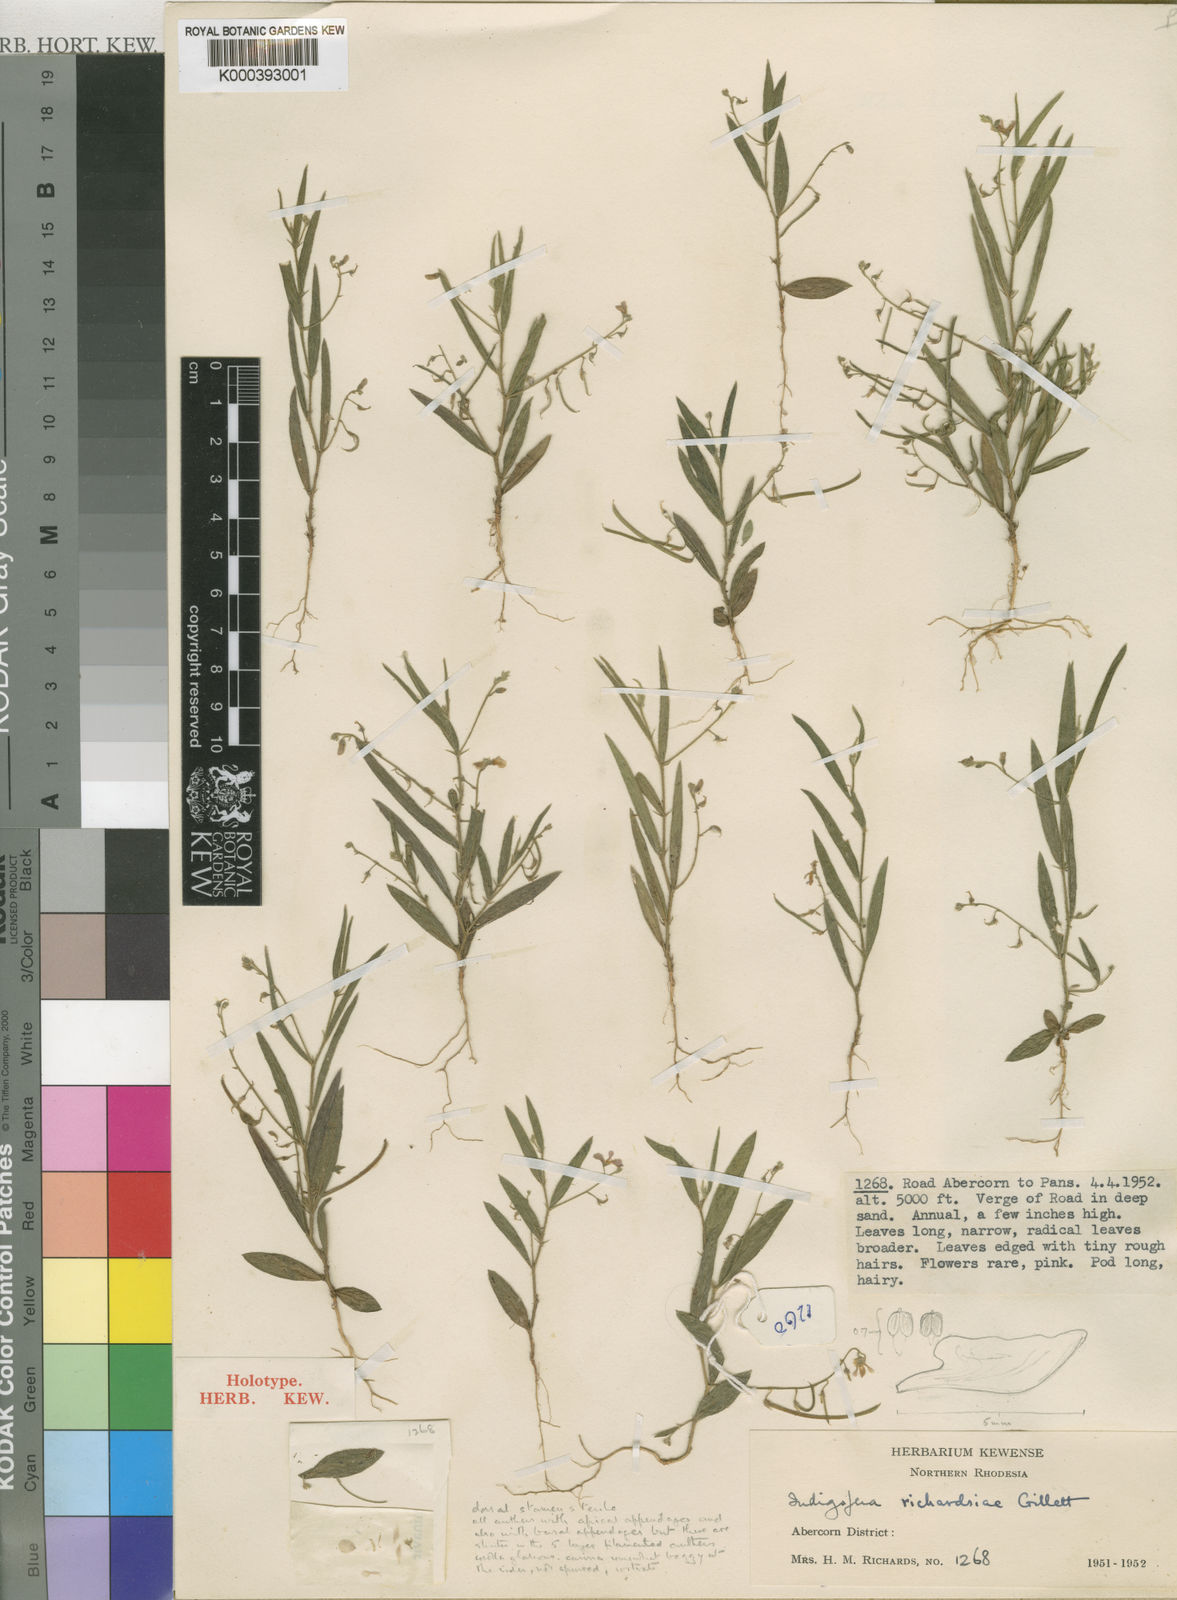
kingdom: Plantae
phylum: Tracheophyta
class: Magnoliopsida
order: Fabales
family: Fabaceae
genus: Indigofera
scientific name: Indigofera richardsiae
